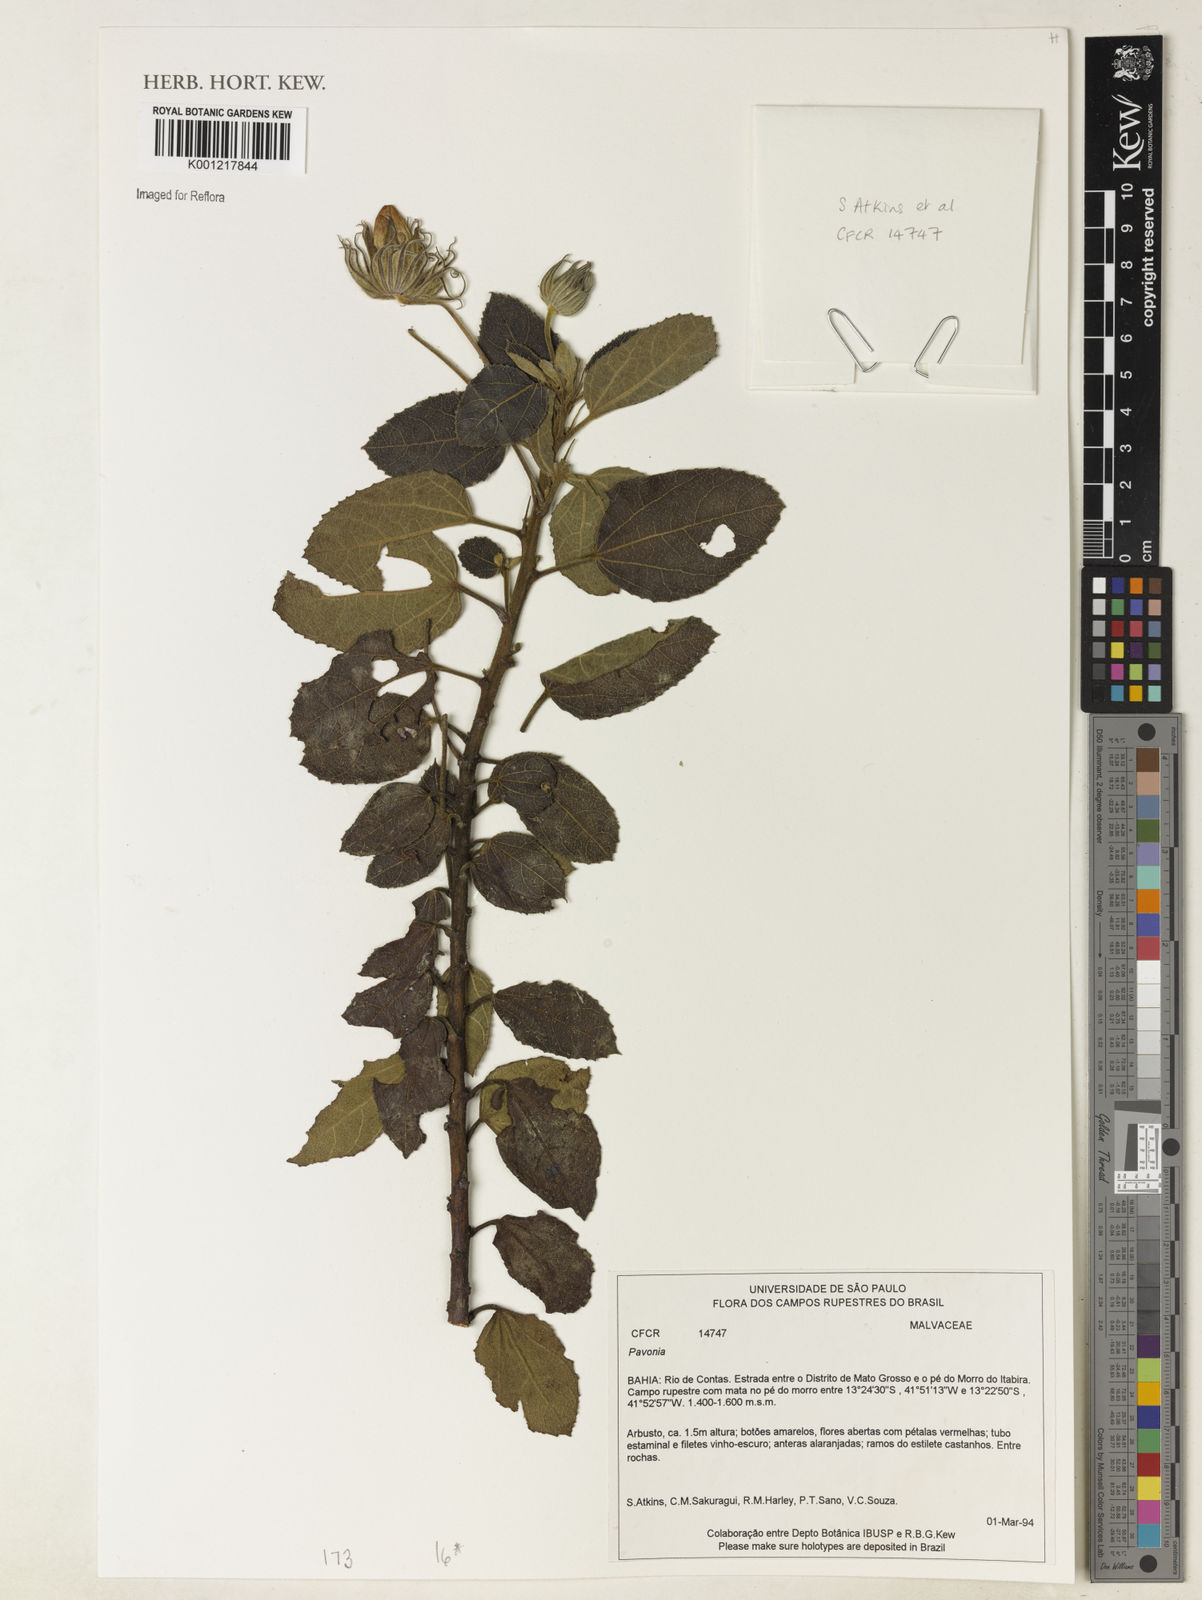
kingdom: Plantae
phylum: Tracheophyta
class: Magnoliopsida
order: Malvales
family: Malvaceae
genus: Pavonia
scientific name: Pavonia
